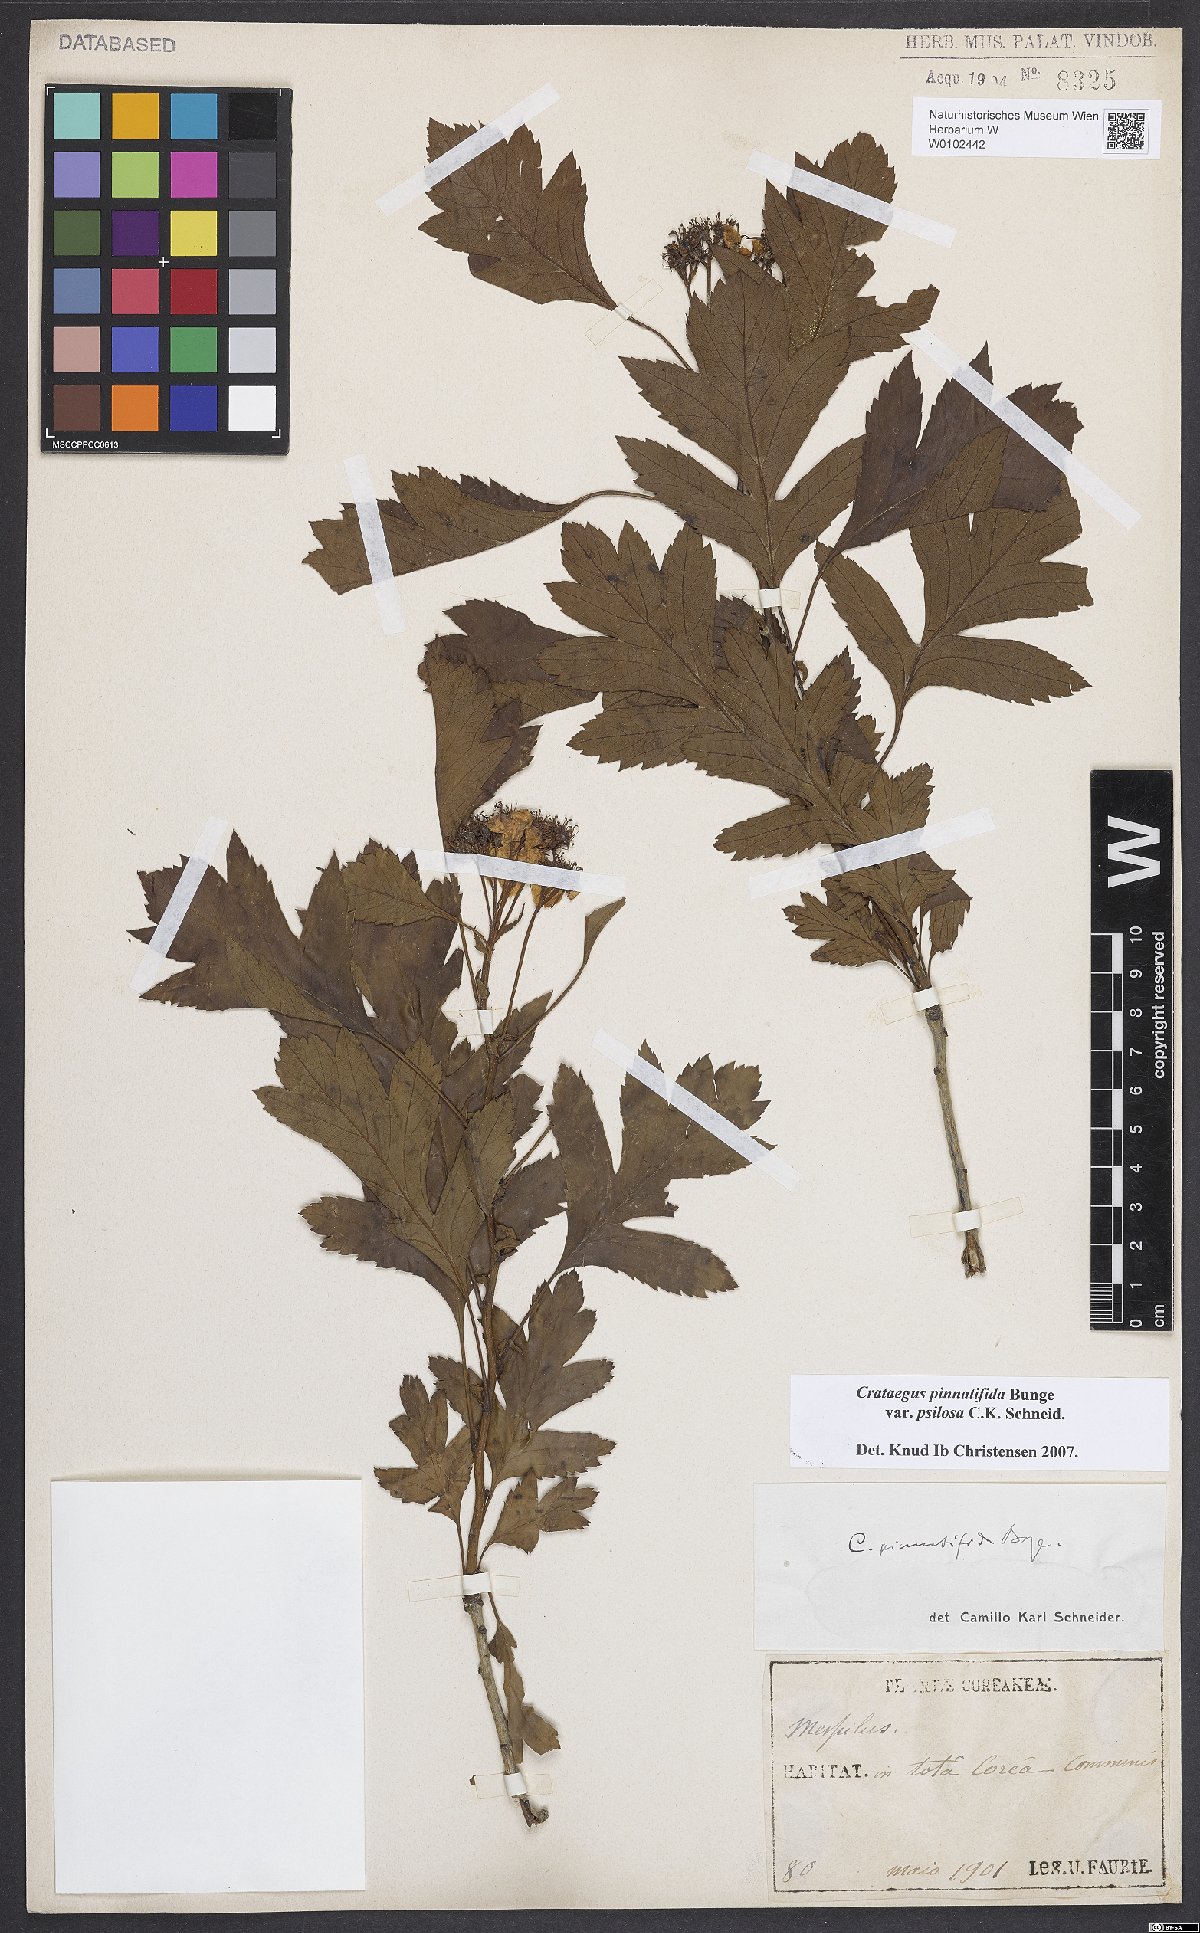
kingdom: Plantae
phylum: Tracheophyta
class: Magnoliopsida
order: Rosales
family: Rosaceae
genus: Crataegus
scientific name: Crataegus pinnatifida
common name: Chinese haw
